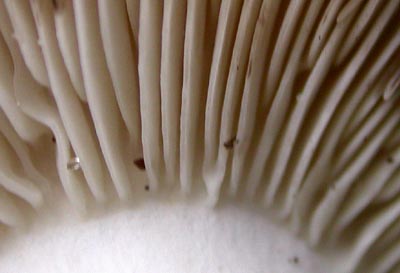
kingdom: Fungi
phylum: Basidiomycota
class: Agaricomycetes
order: Russulales
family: Russulaceae
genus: Russula
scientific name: Russula acrifolia
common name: skarpbladet skørhat
